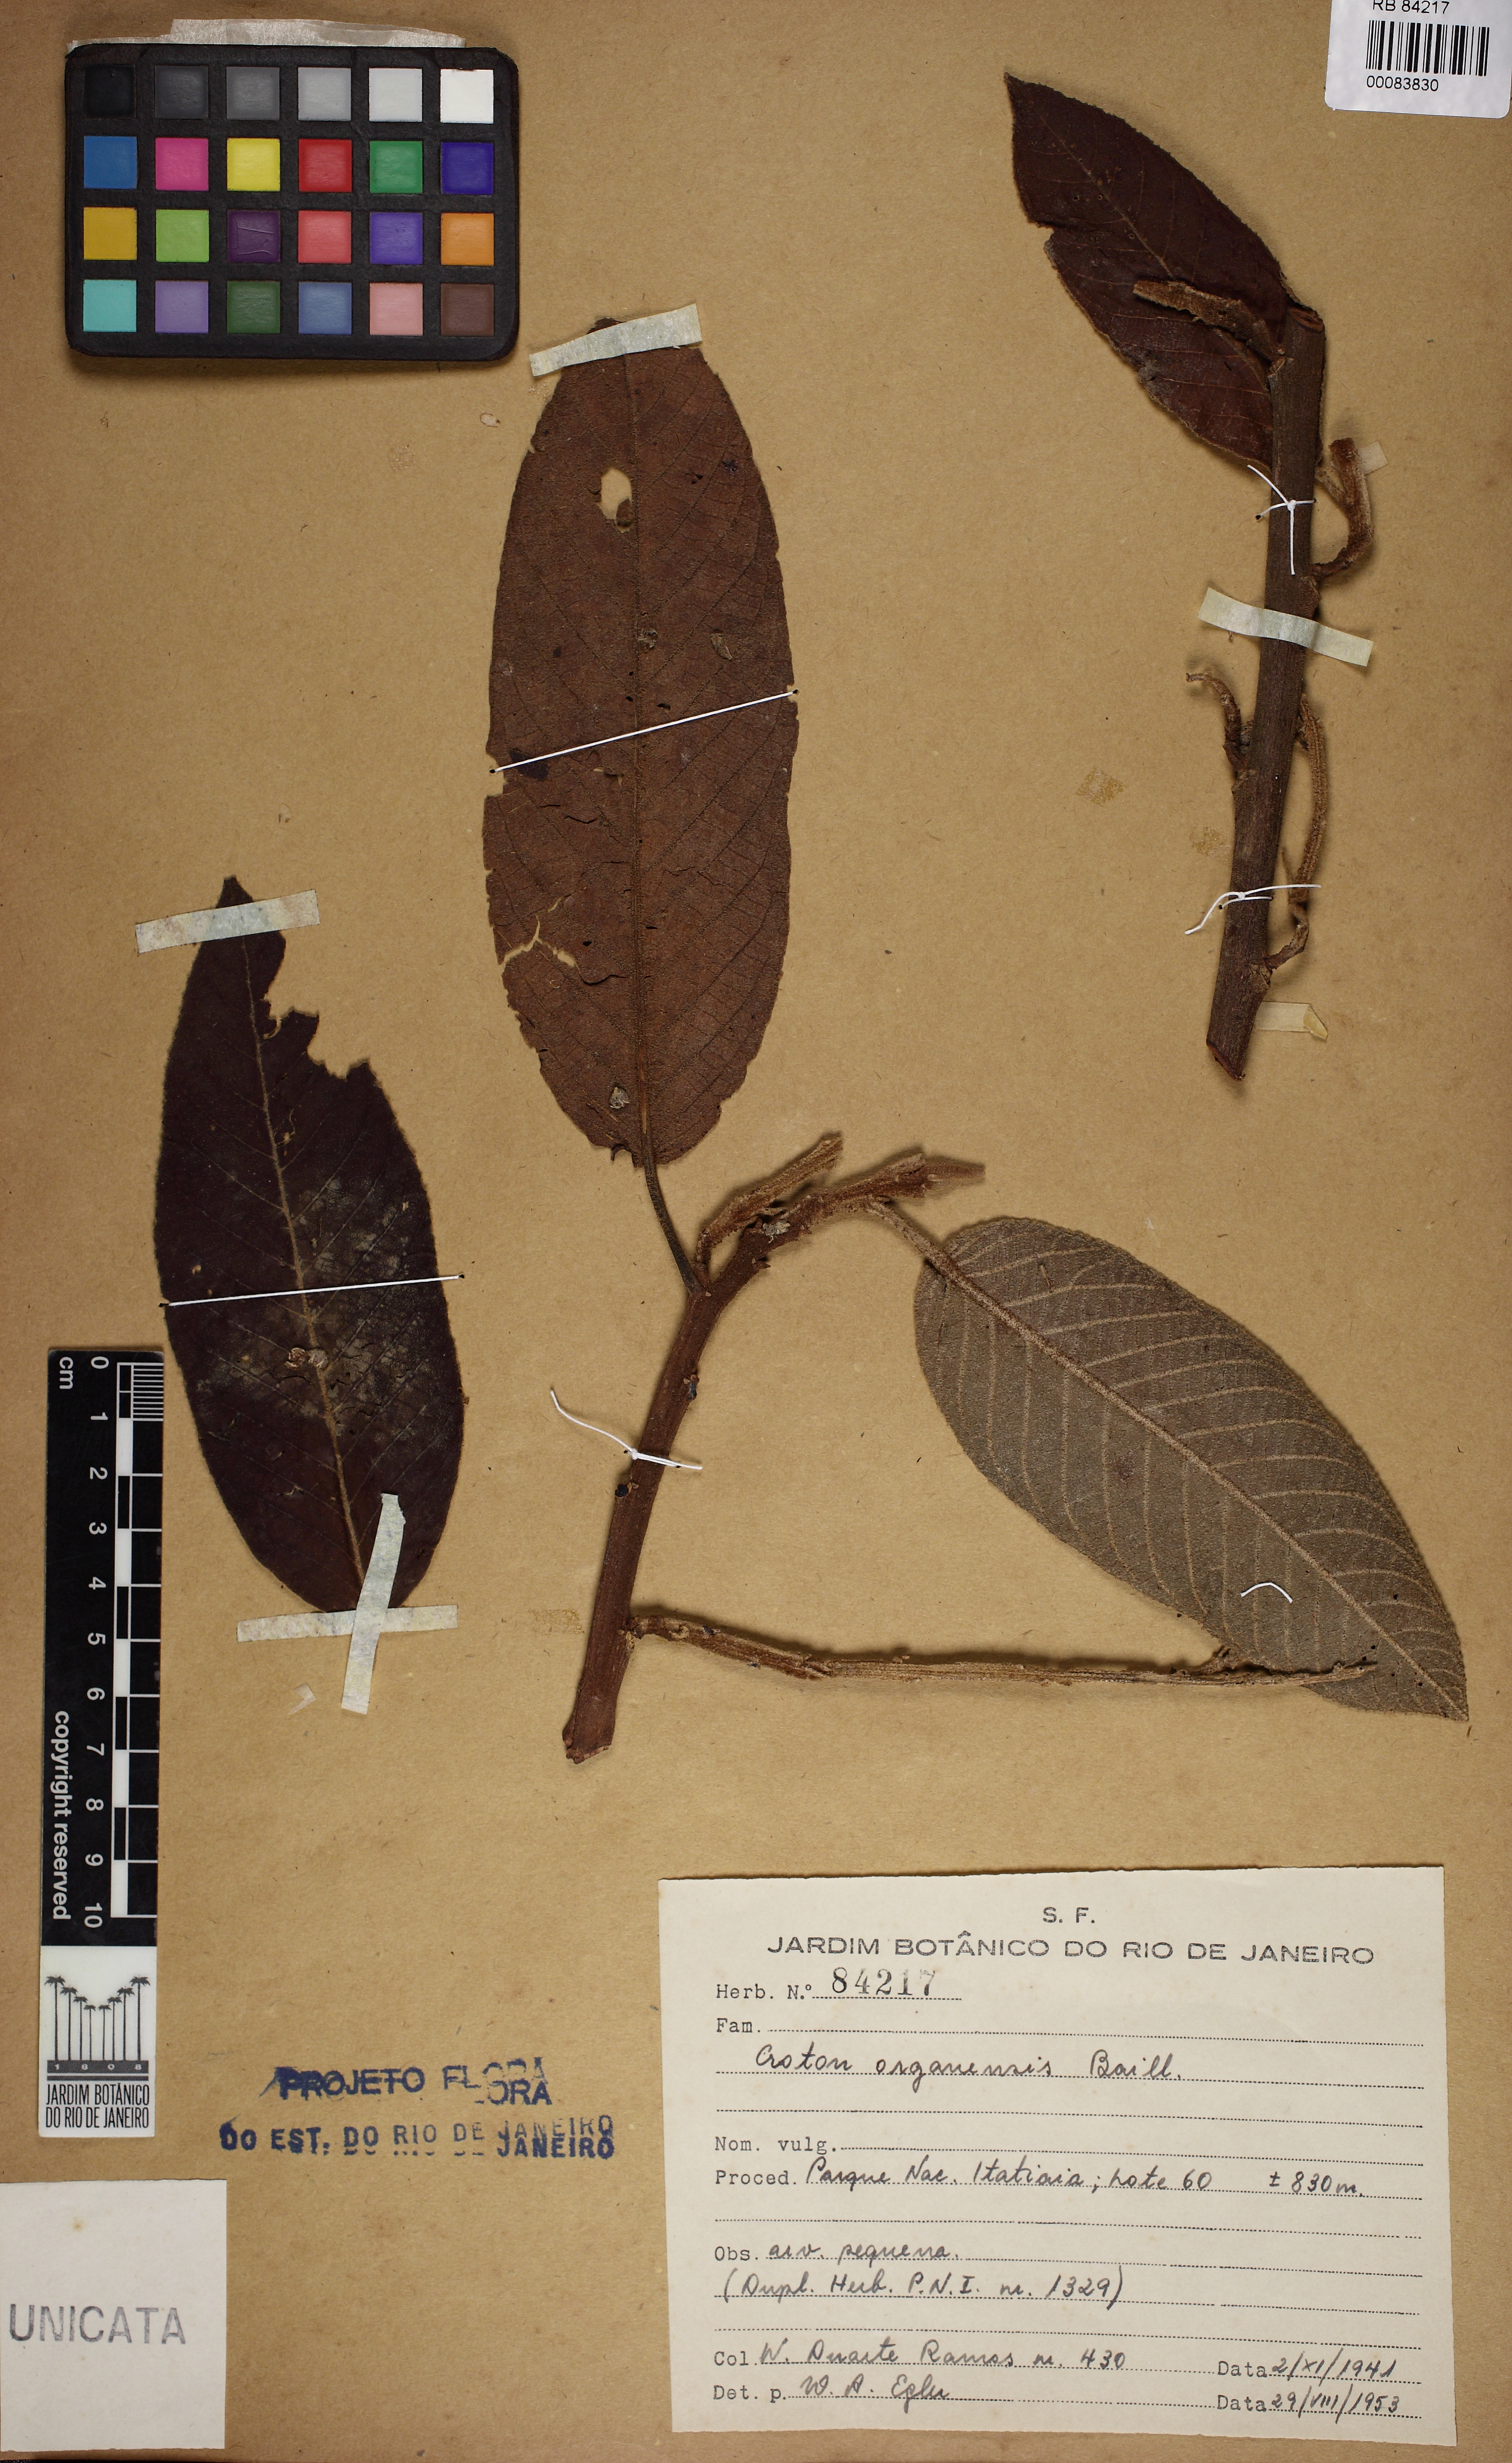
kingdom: Plantae
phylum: Tracheophyta
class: Magnoliopsida
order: Malpighiales
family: Euphorbiaceae
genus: Croton
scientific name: Croton organensis
